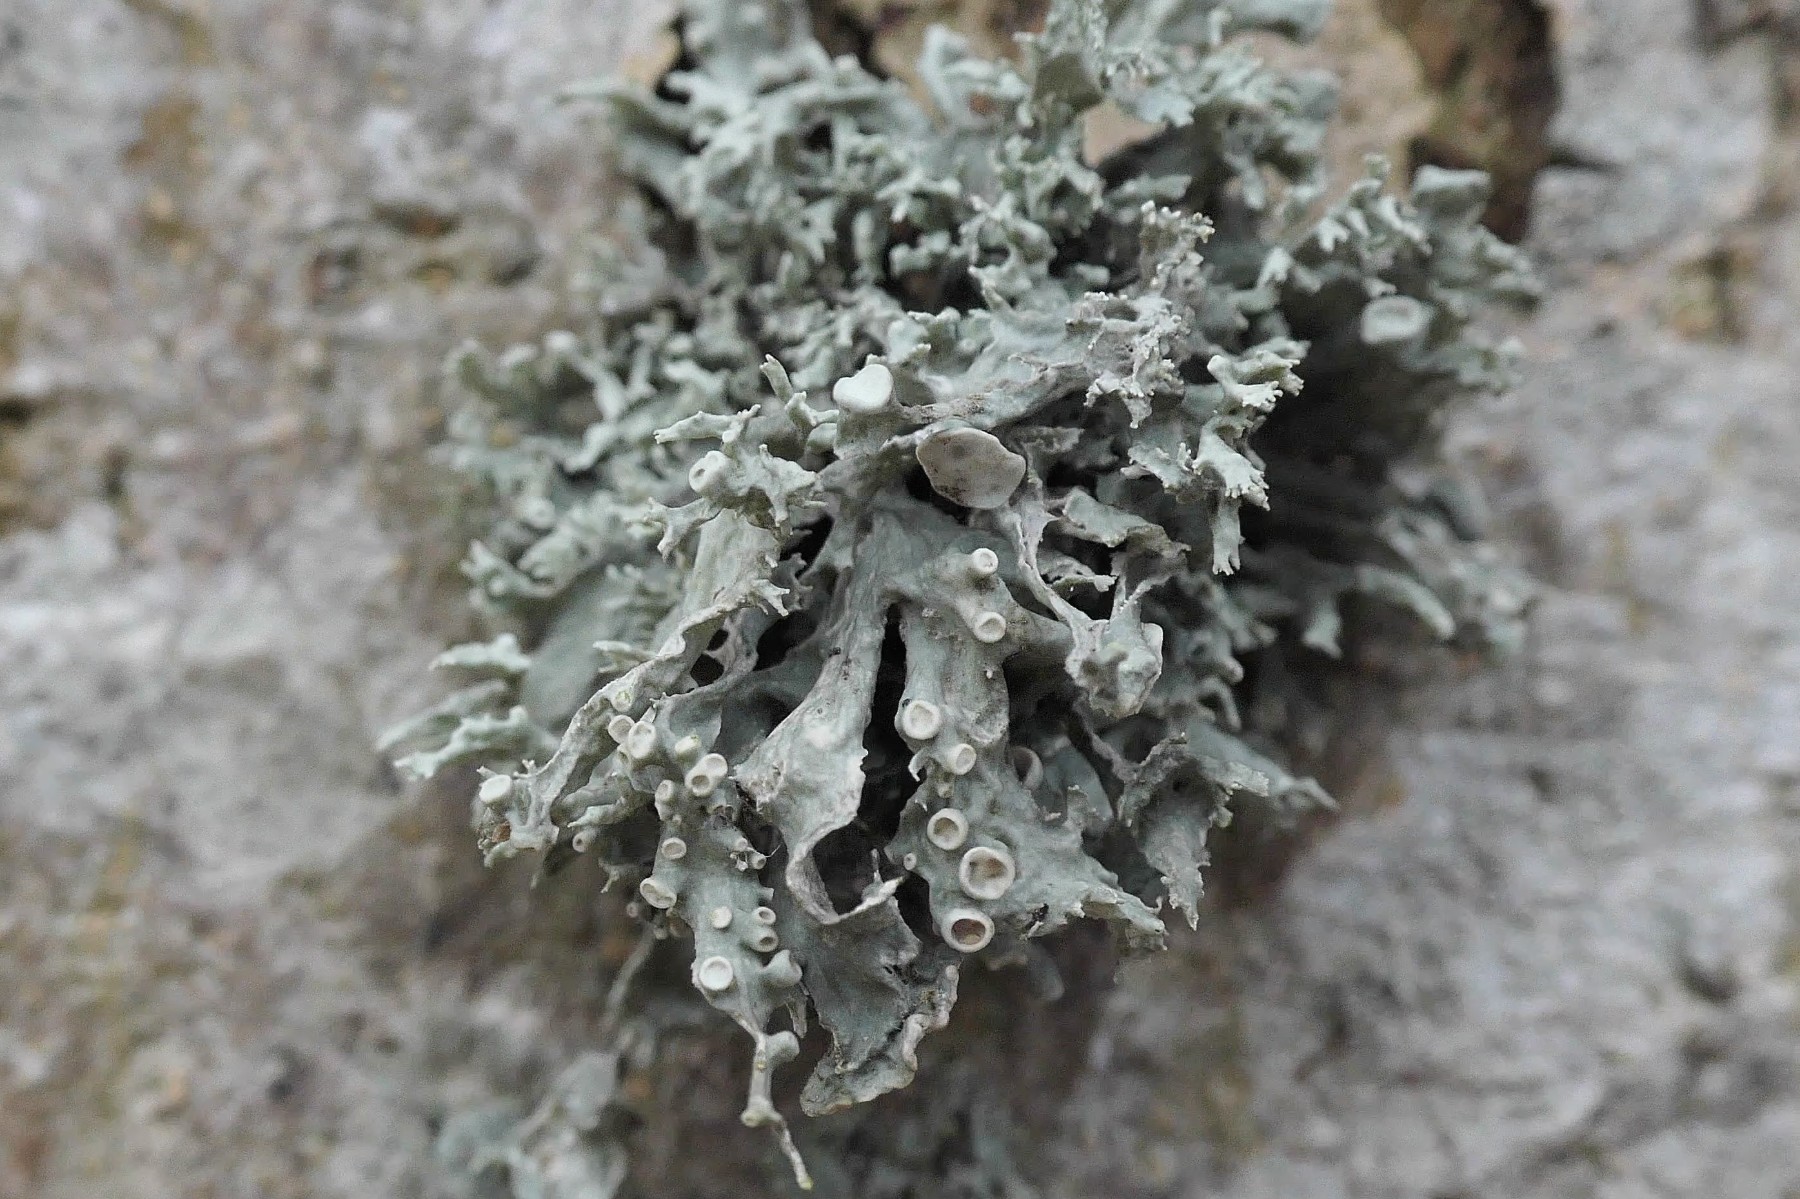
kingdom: Fungi
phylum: Ascomycota
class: Lecanoromycetes
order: Lecanorales
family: Ramalinaceae
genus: Ramalina
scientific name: Ramalina fastigiata
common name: tue-grenlav
